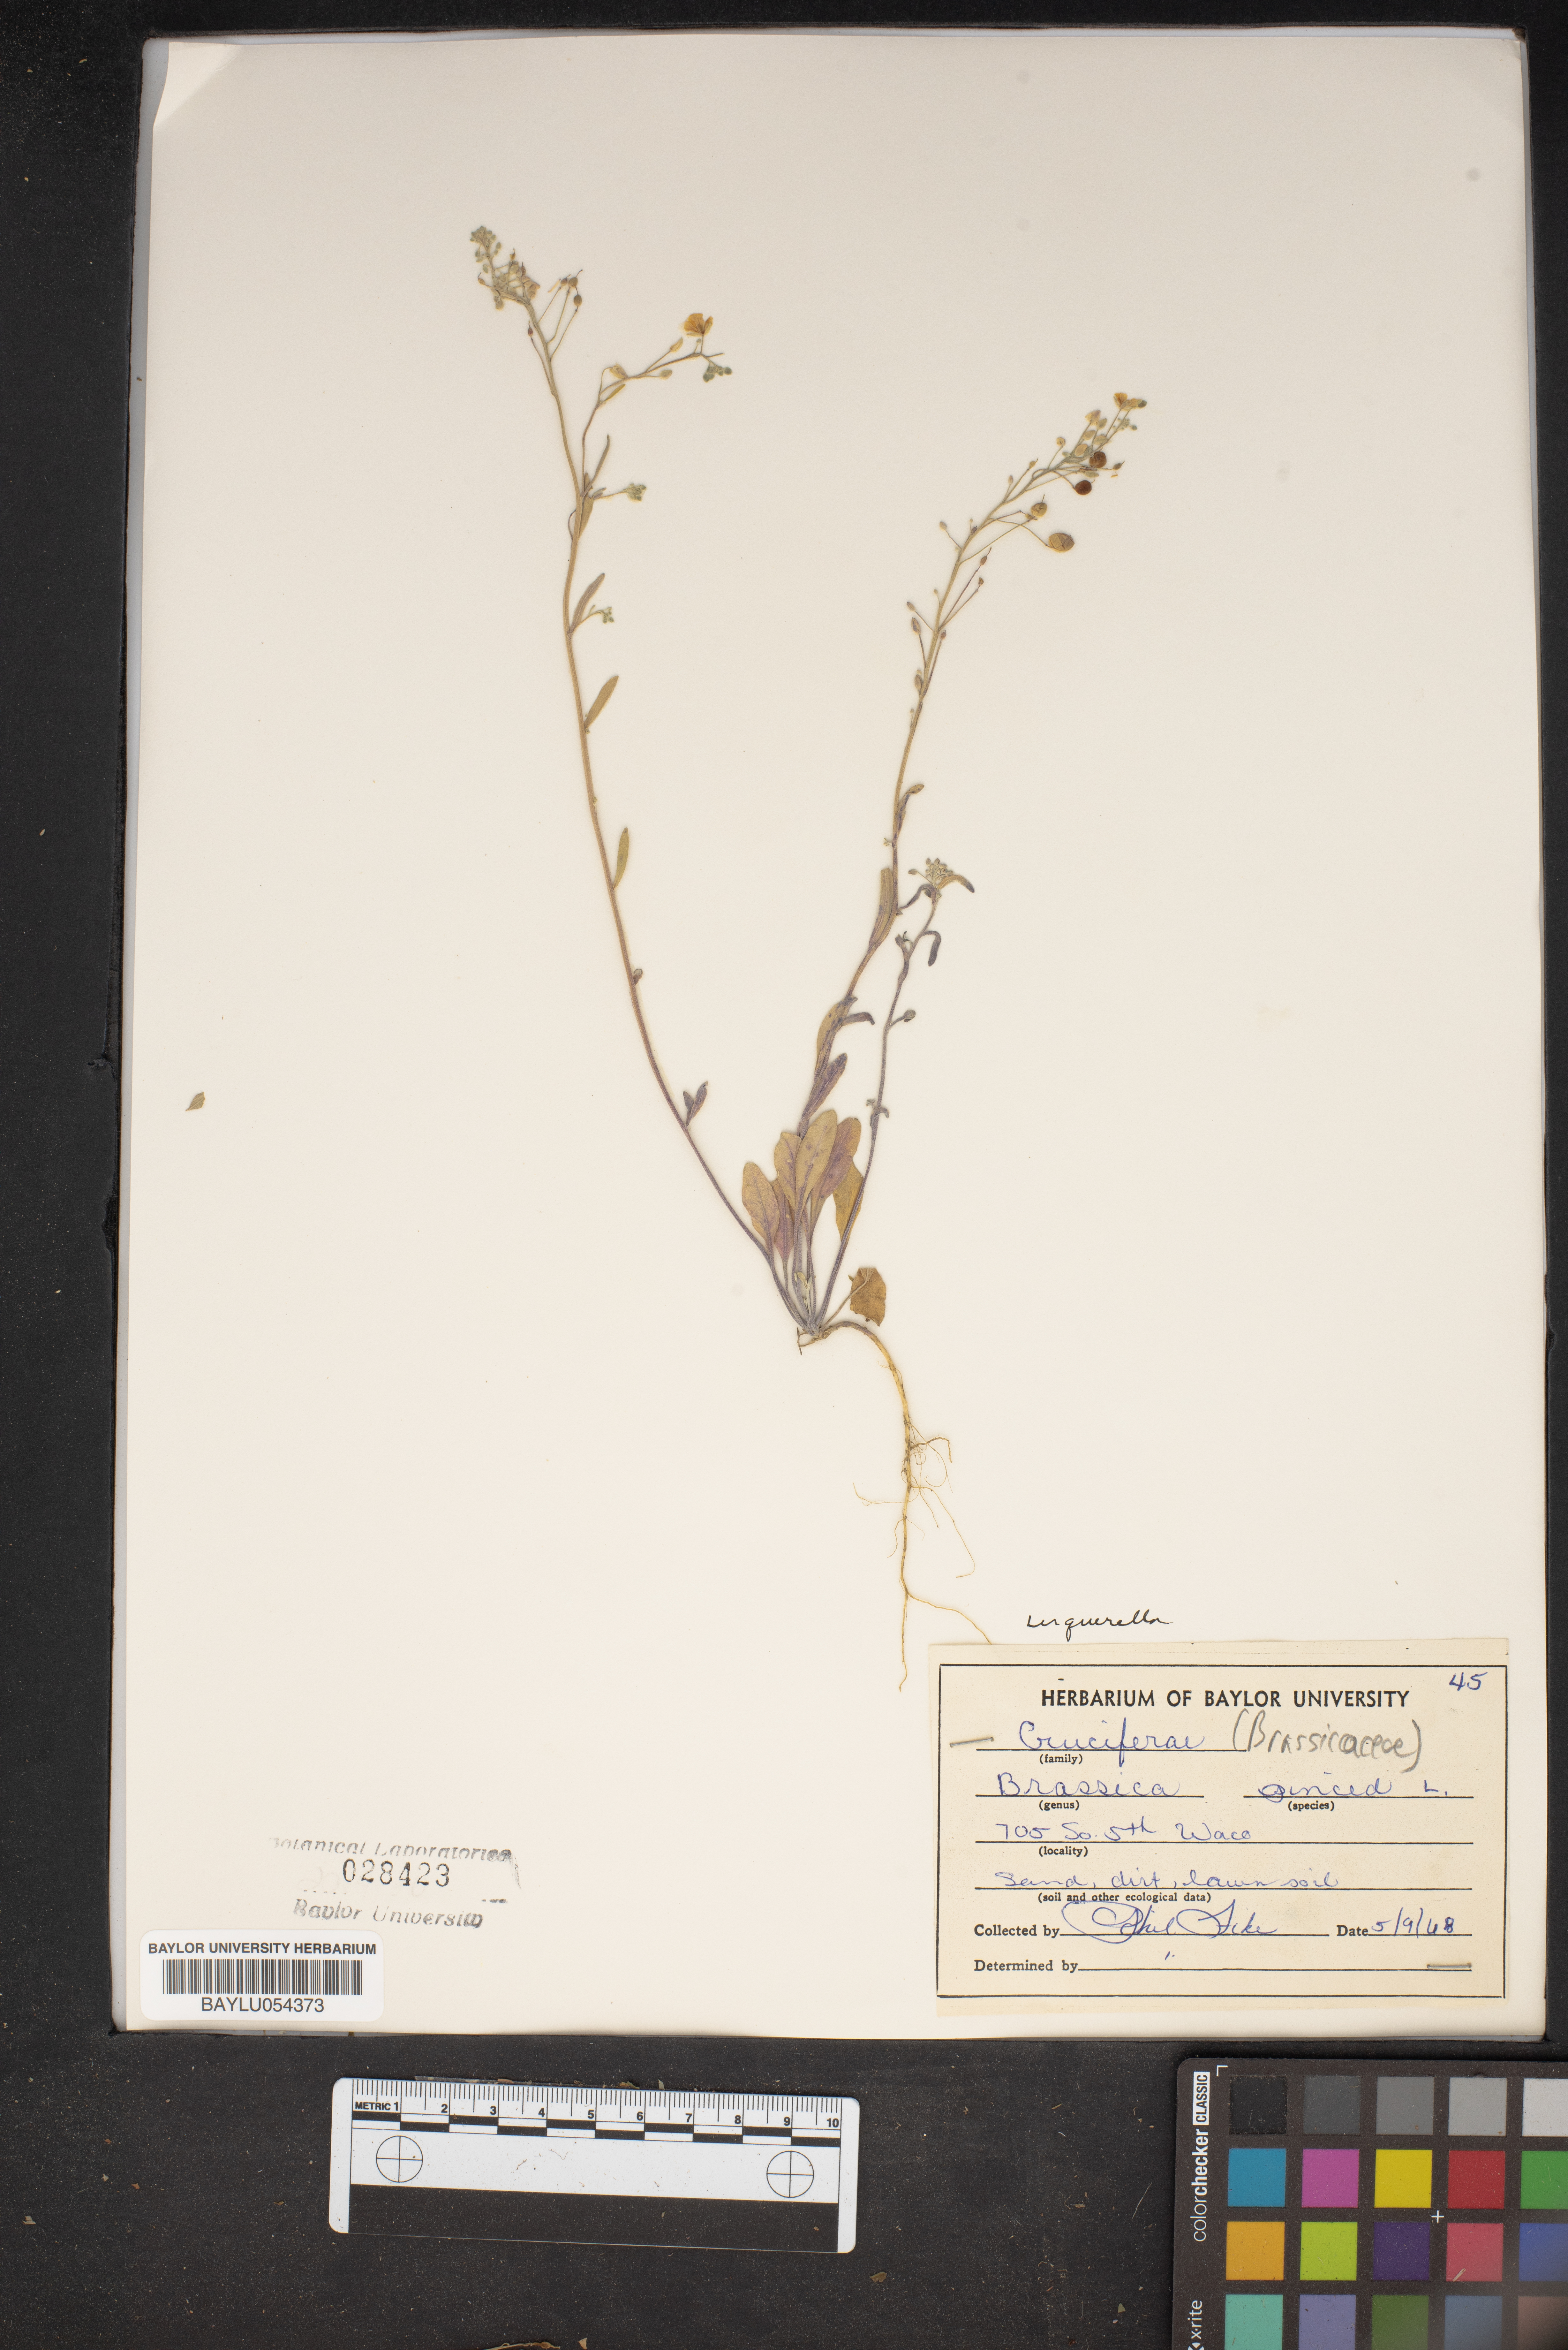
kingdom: Plantae
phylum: Tracheophyta
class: Magnoliopsida
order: Brassicales
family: Brassicaceae
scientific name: Brassicaceae
